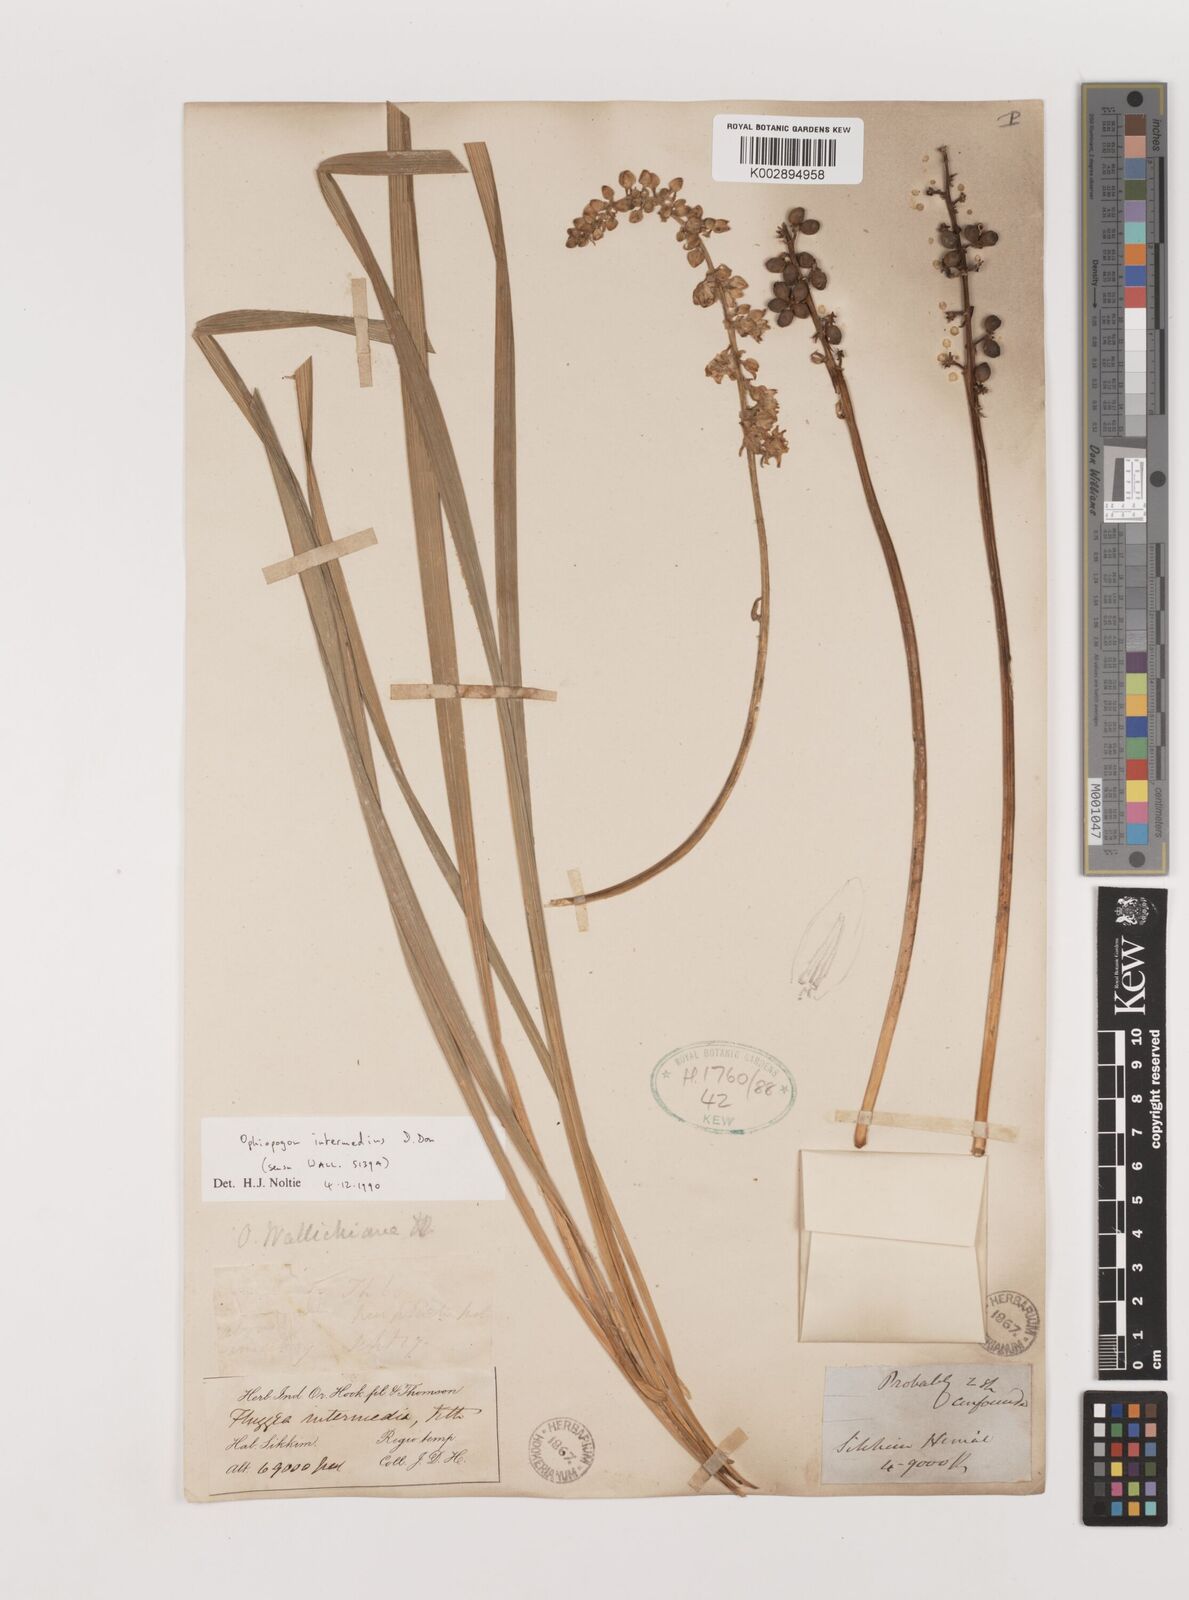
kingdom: Plantae
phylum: Tracheophyta
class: Liliopsida
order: Asparagales
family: Asparagaceae
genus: Ophiopogon
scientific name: Ophiopogon intermedius
